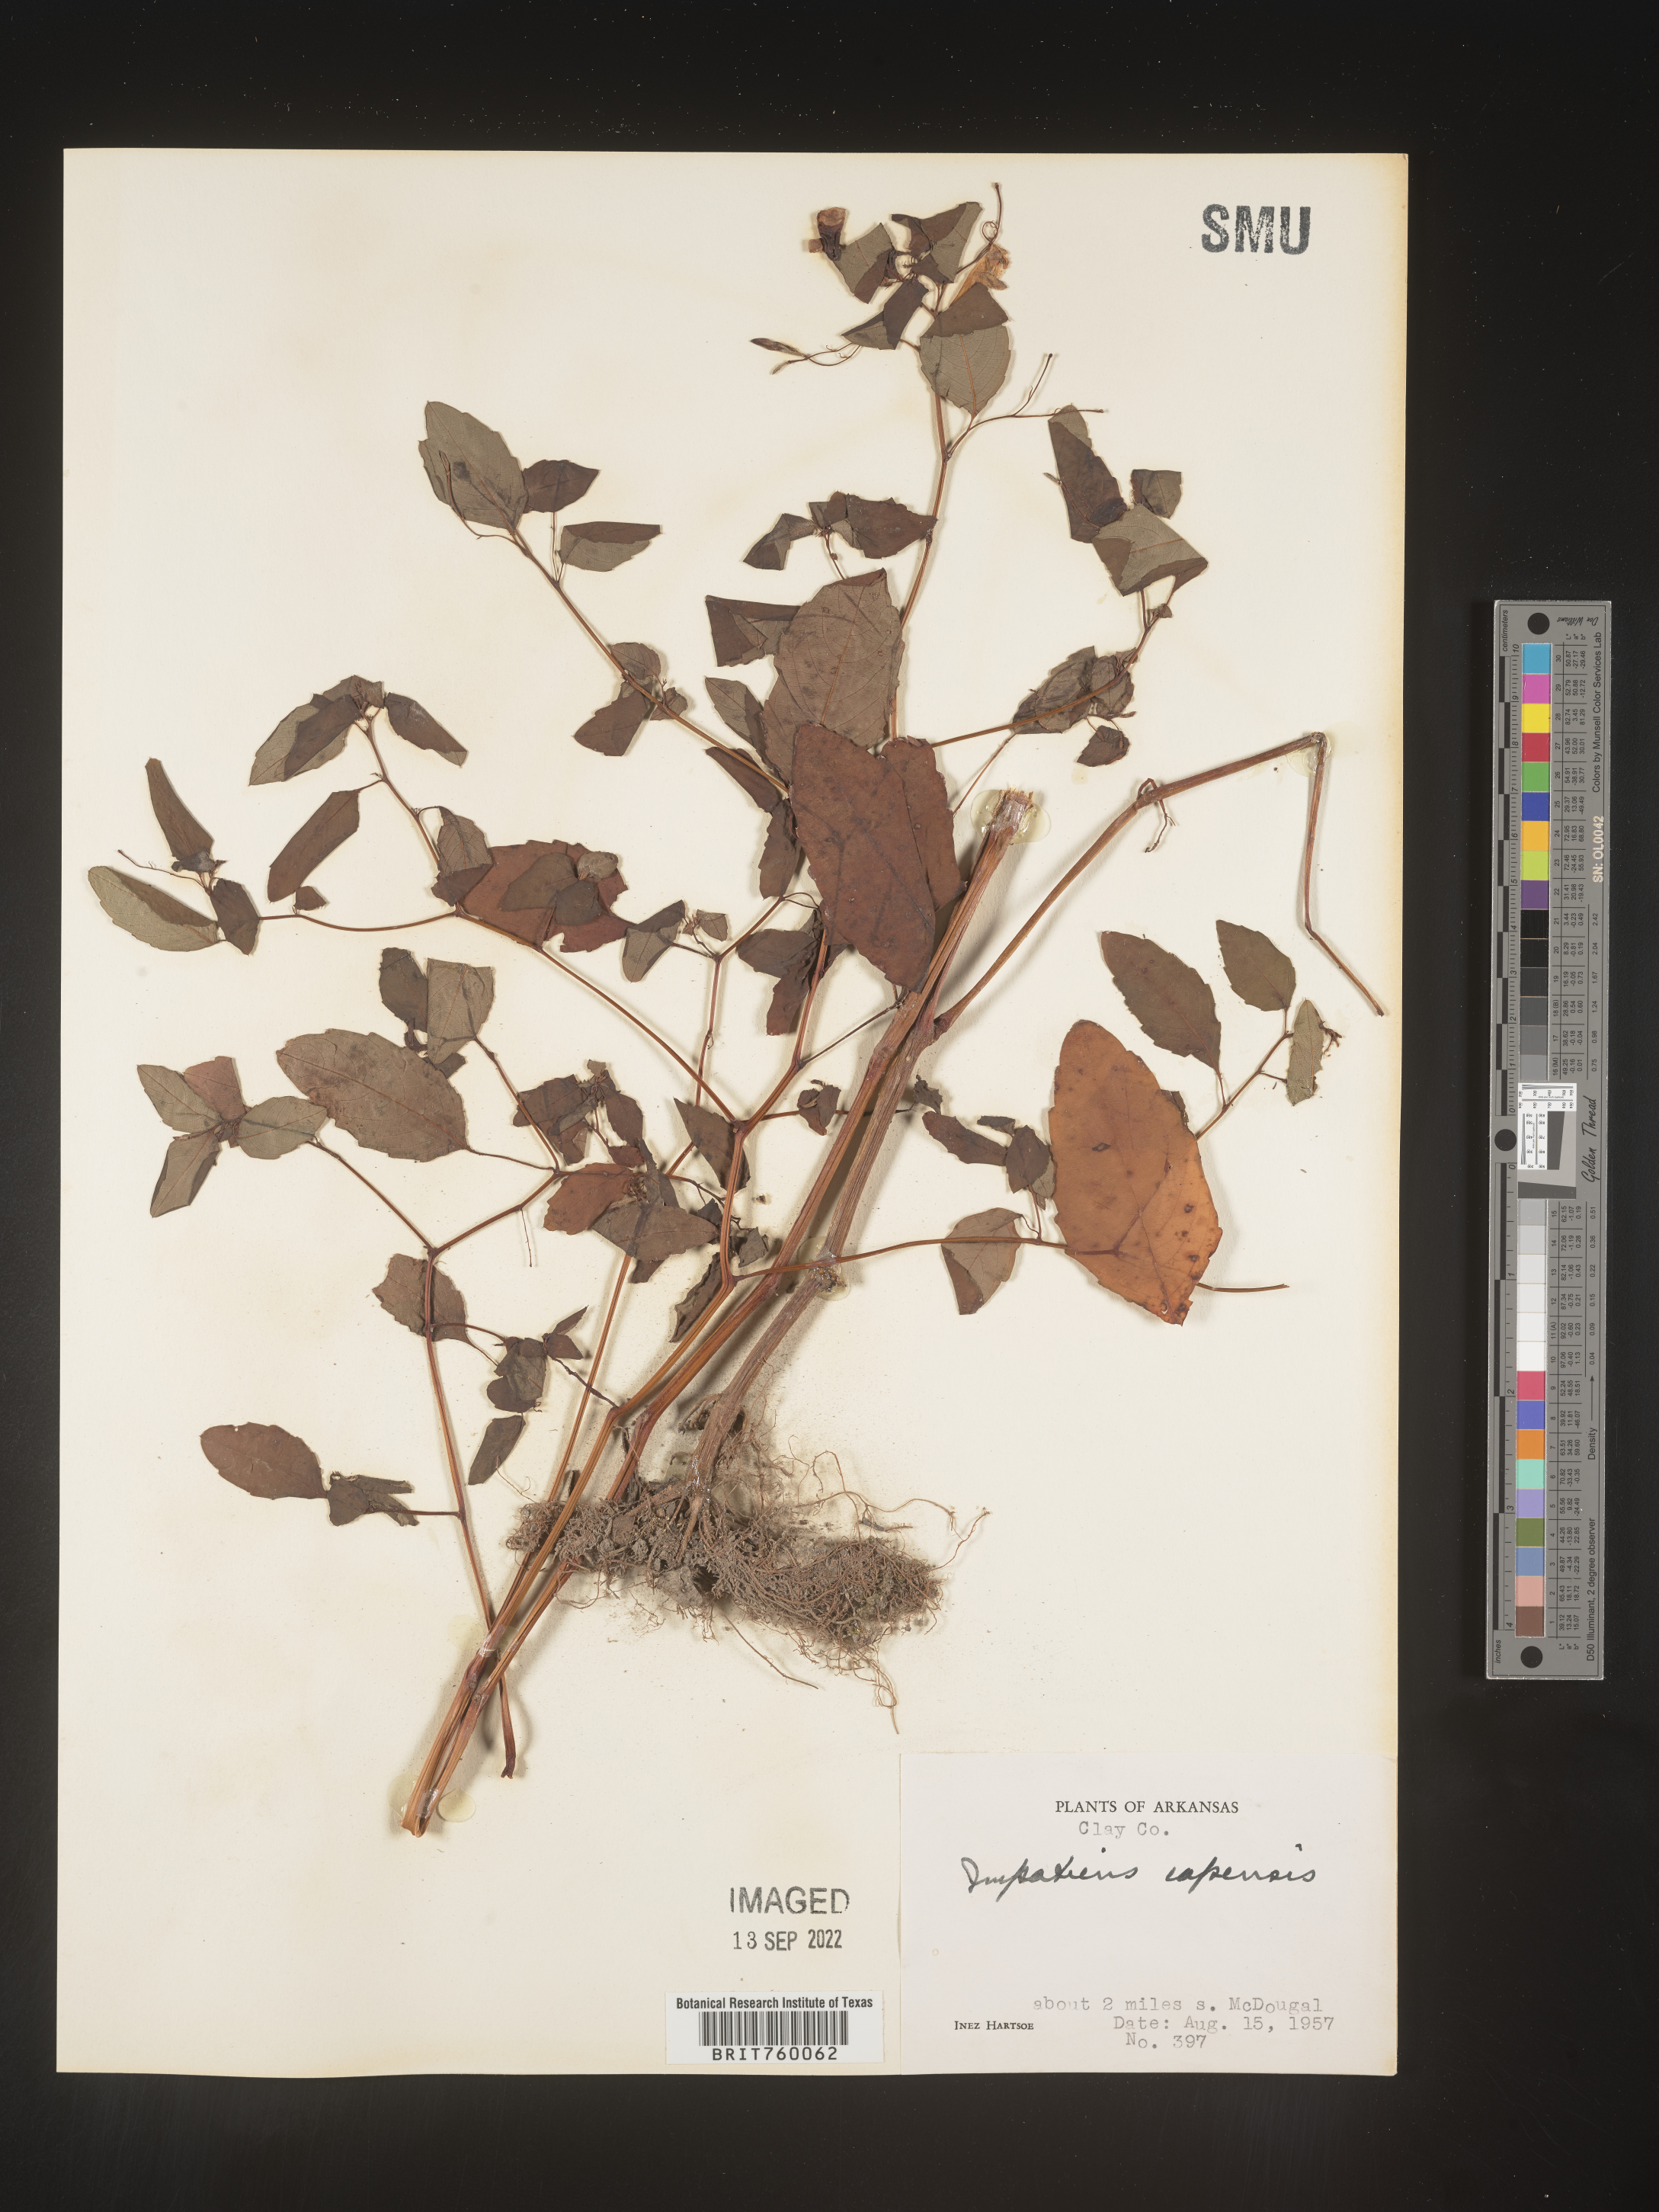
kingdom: Plantae
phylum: Tracheophyta
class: Magnoliopsida
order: Ericales
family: Balsaminaceae
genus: Impatiens
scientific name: Impatiens capensis
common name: Orange balsam
